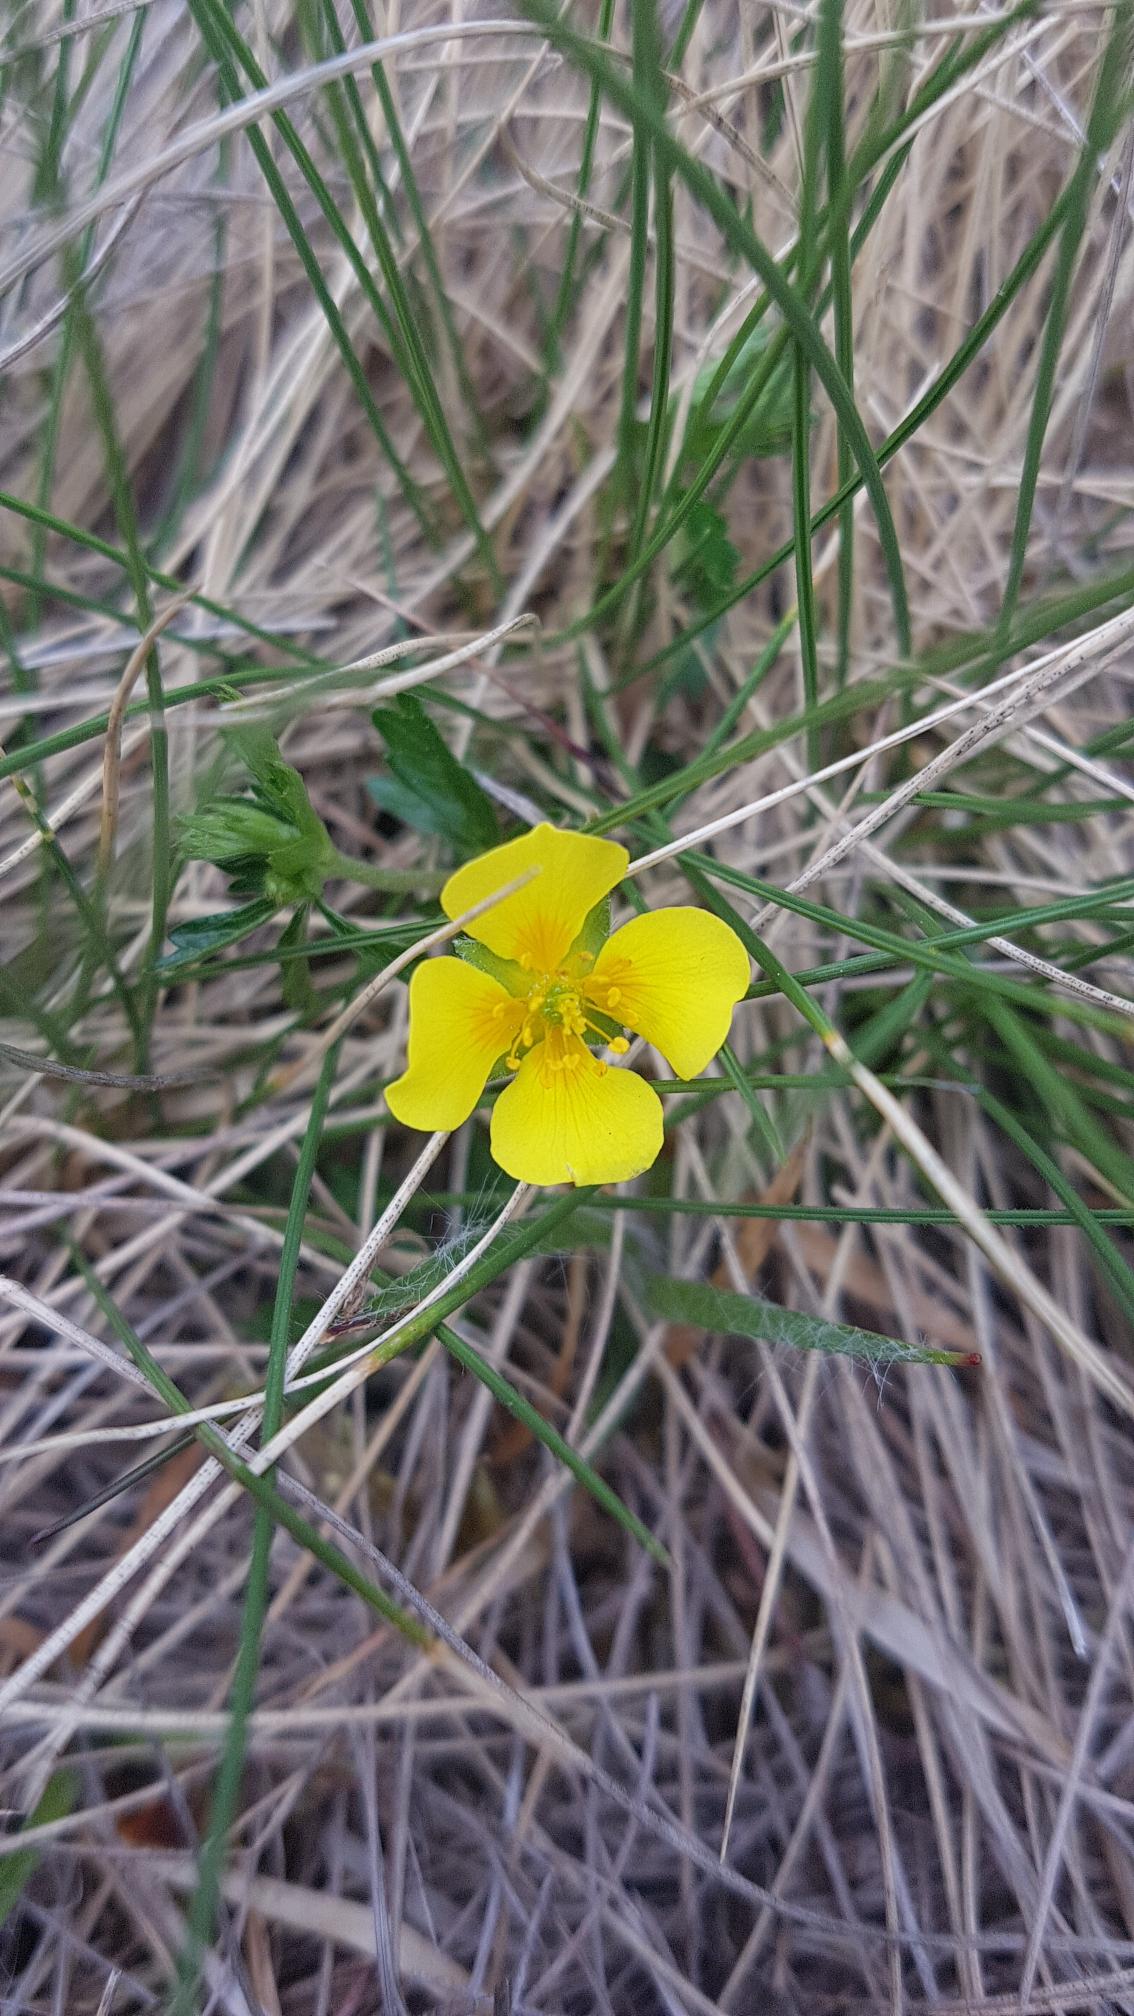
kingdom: Plantae
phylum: Tracheophyta
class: Magnoliopsida
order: Rosales
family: Rosaceae
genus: Potentilla
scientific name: Potentilla erecta
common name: Tormentil
